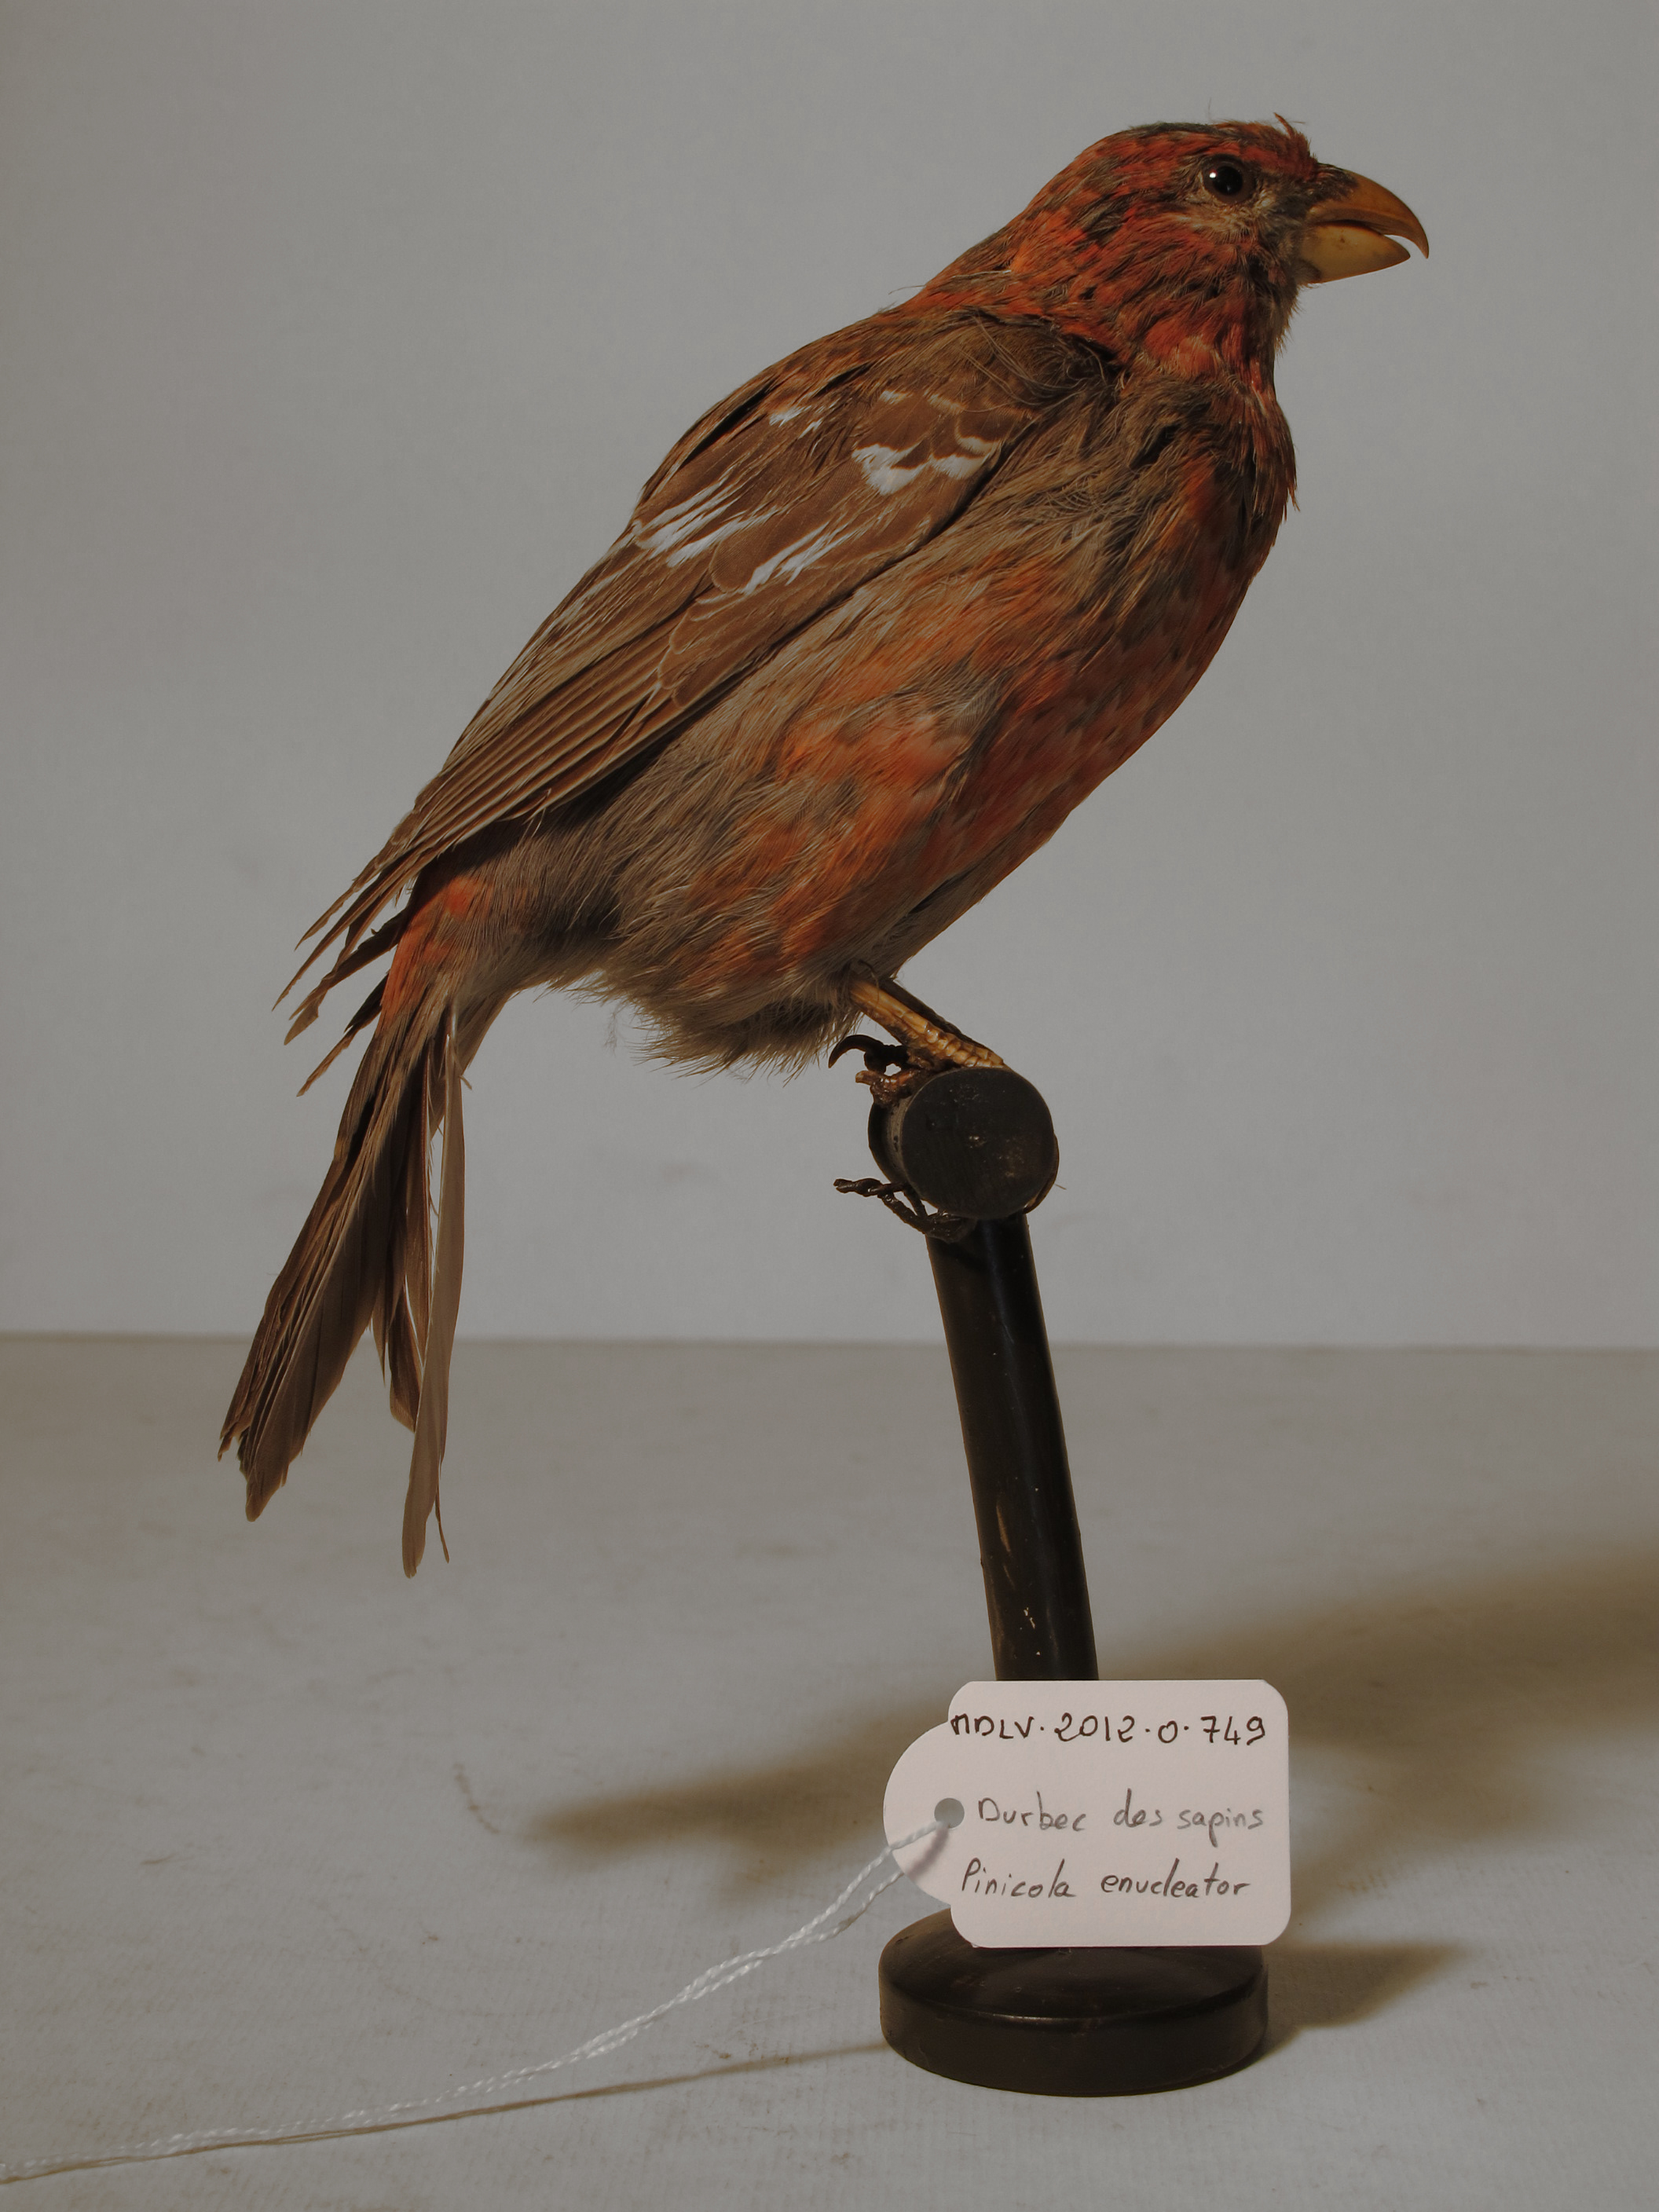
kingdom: Animalia
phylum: Chordata
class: Aves
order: Passeriformes
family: Fringillidae
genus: Pinicola
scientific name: Pinicola enucleator
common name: Pine Grosbeak
